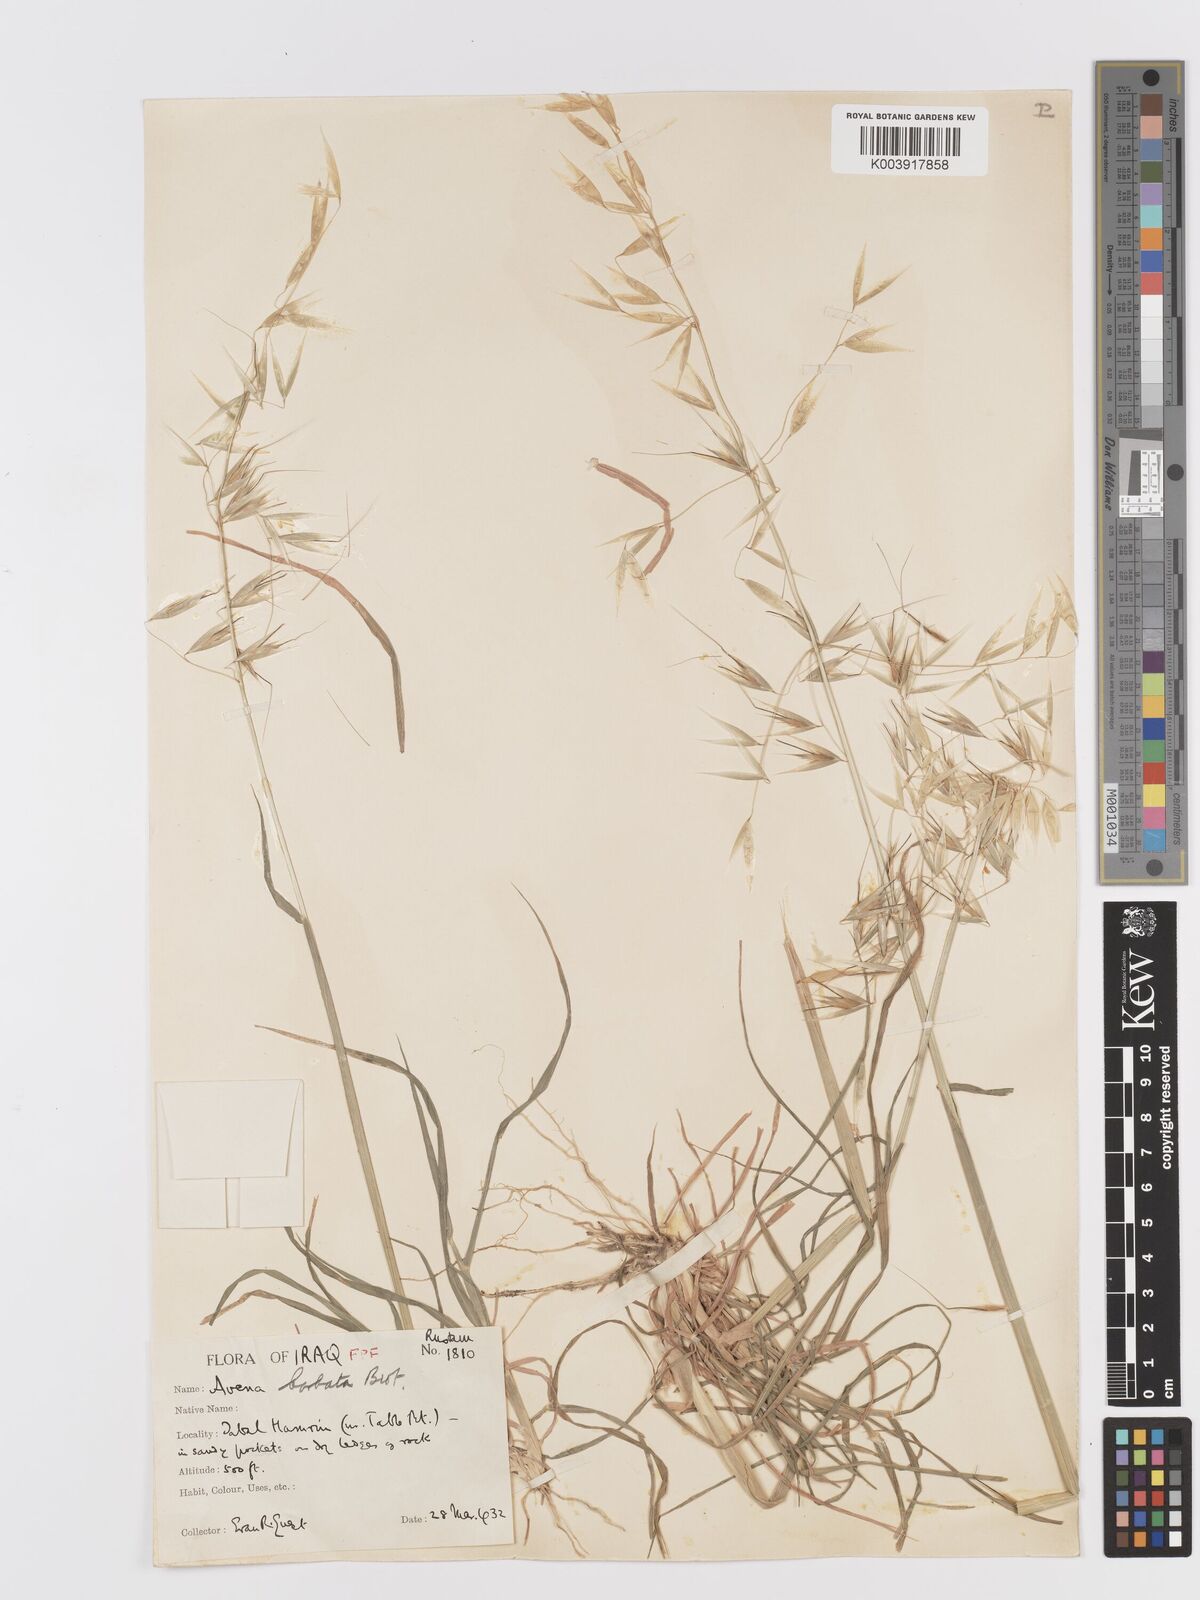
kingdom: Plantae
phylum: Tracheophyta
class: Liliopsida
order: Poales
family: Poaceae
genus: Avena
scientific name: Avena
